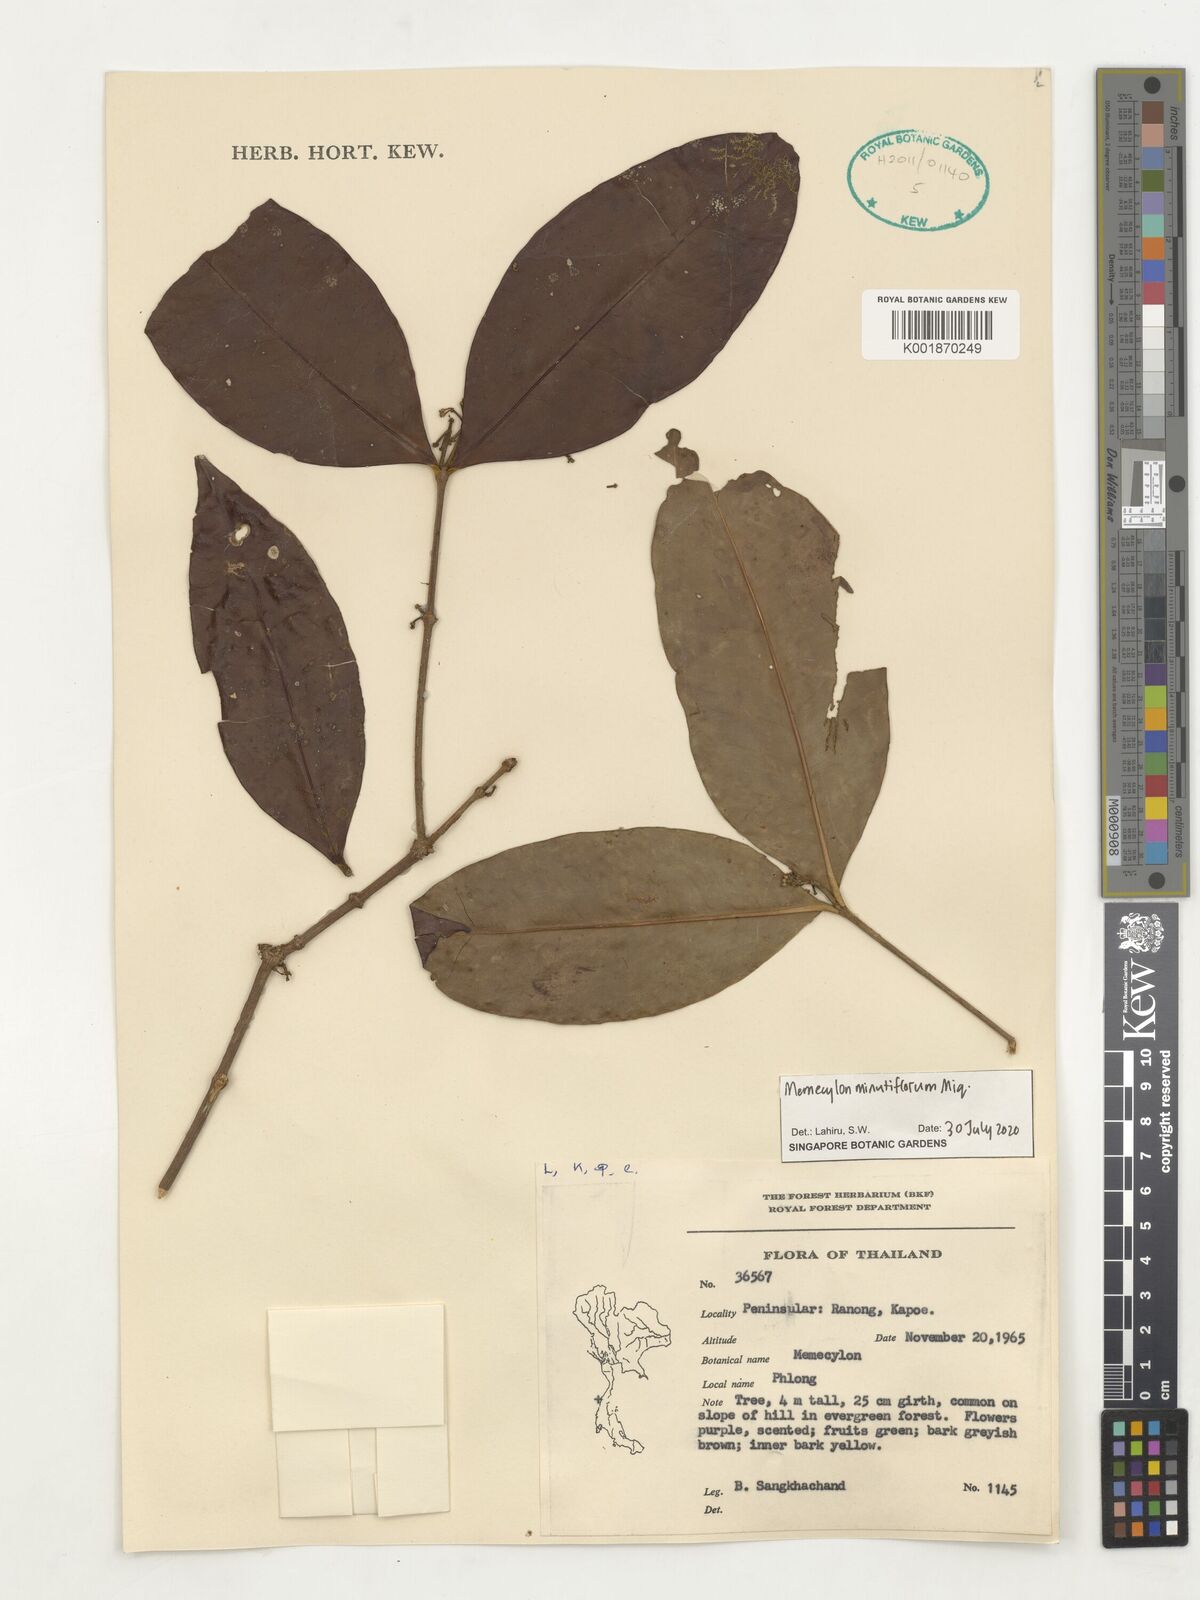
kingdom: Plantae
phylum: Tracheophyta
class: Magnoliopsida
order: Myrtales
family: Melastomataceae
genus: Memecylon
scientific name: Memecylon minutiflorum
